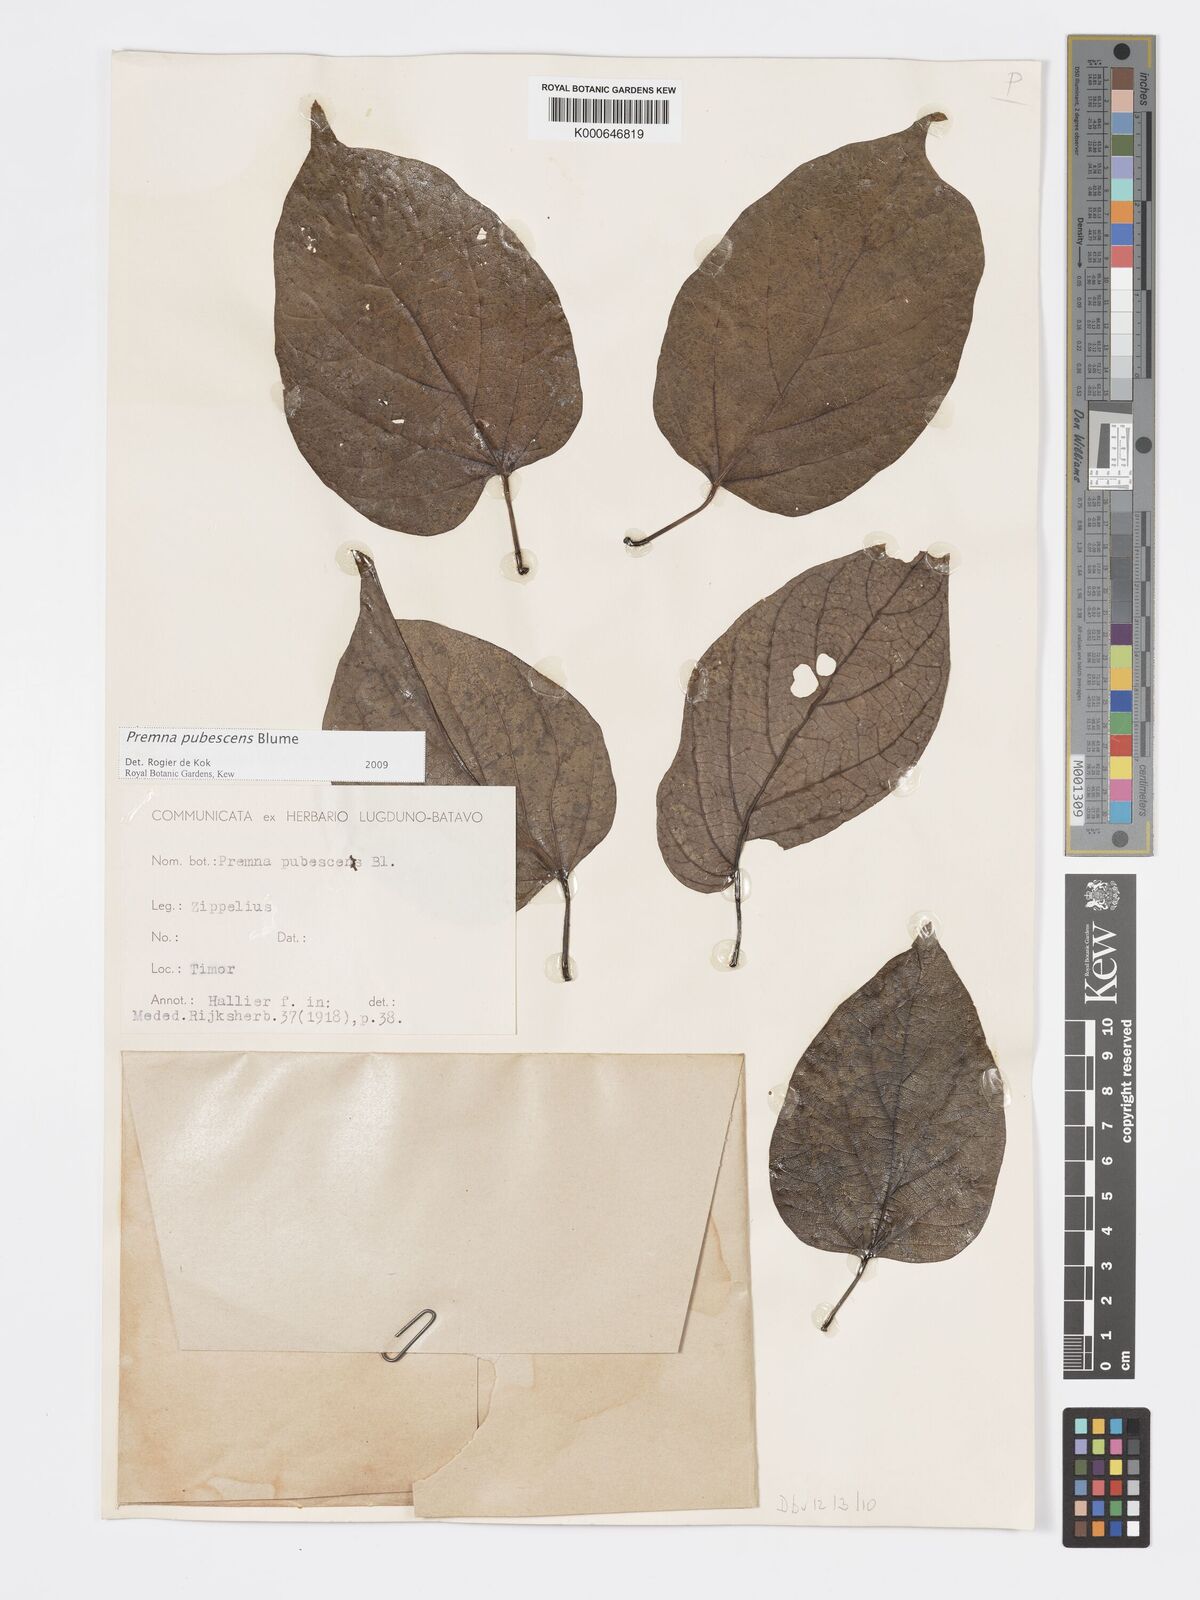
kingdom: Plantae
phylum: Tracheophyta
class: Magnoliopsida
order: Lamiales
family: Lamiaceae
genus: Premna
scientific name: Premna
